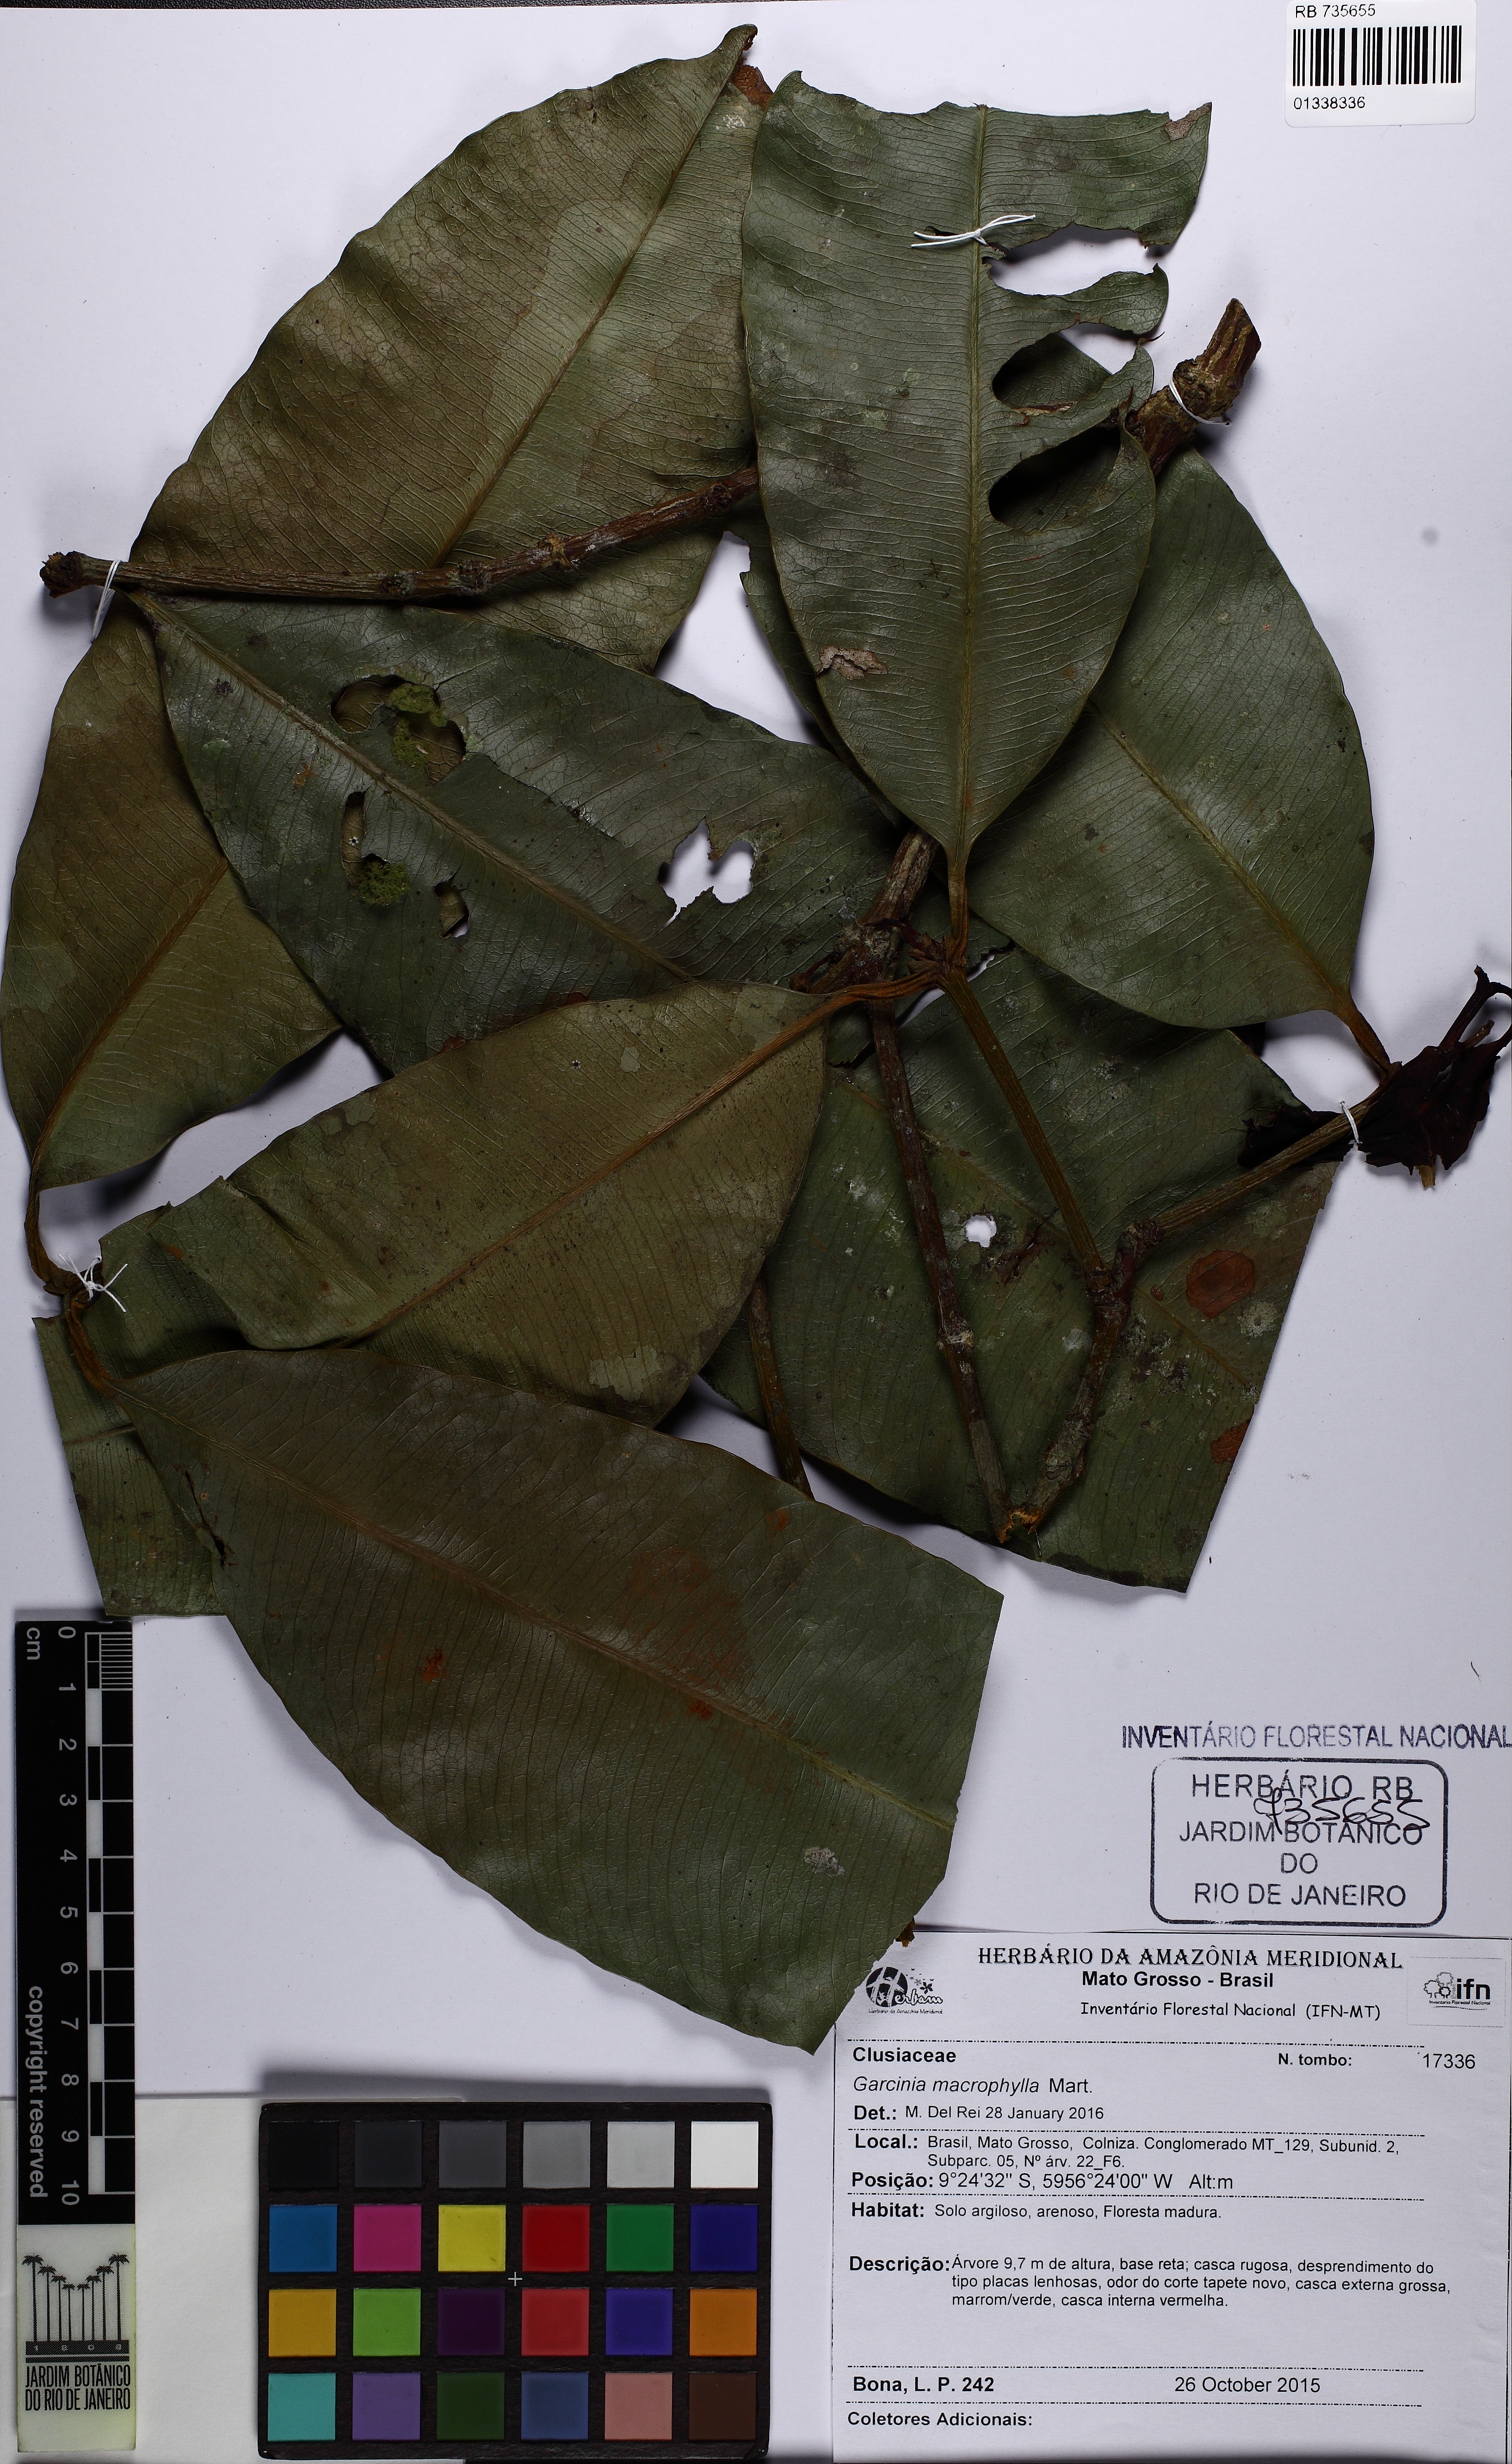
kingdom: Plantae
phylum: Tracheophyta
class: Magnoliopsida
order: Malpighiales
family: Clusiaceae
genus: Garcinia
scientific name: Garcinia macrophylla
